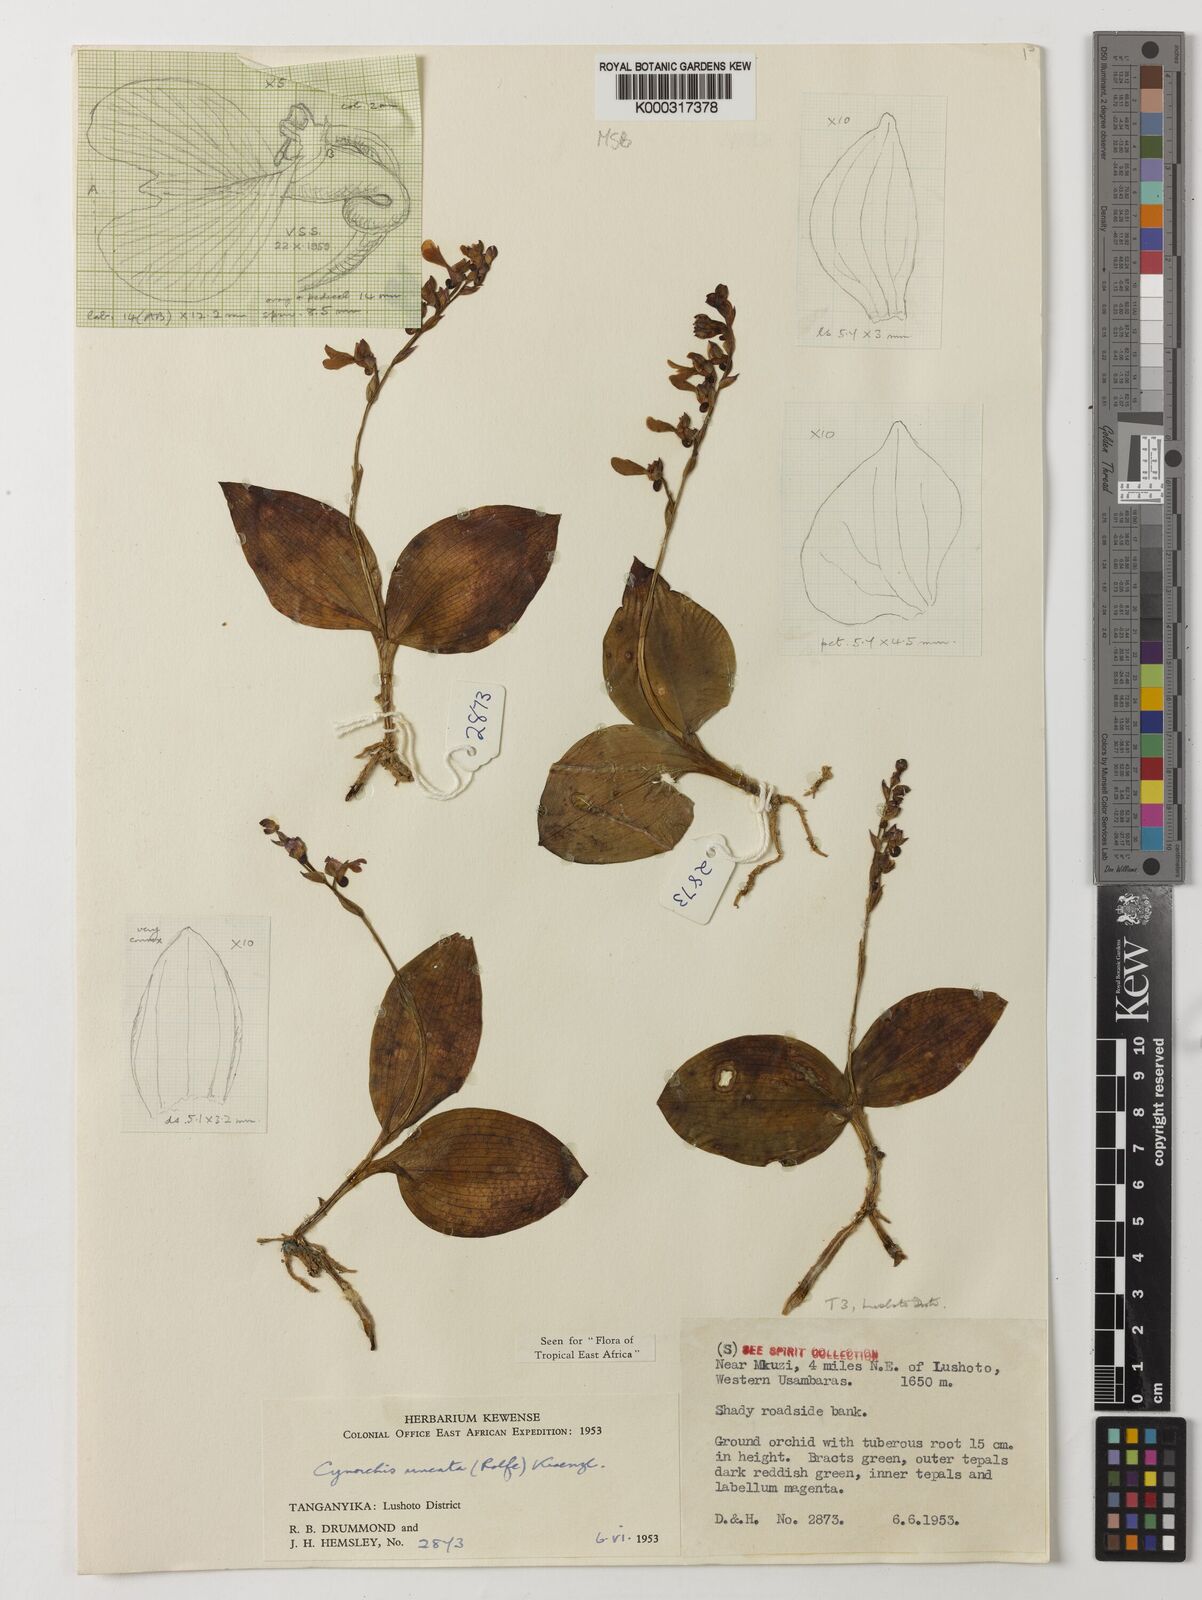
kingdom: Plantae
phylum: Tracheophyta
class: Liliopsida
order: Asparagales
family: Orchidaceae
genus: Cynorkis
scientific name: Cynorkis uncata
